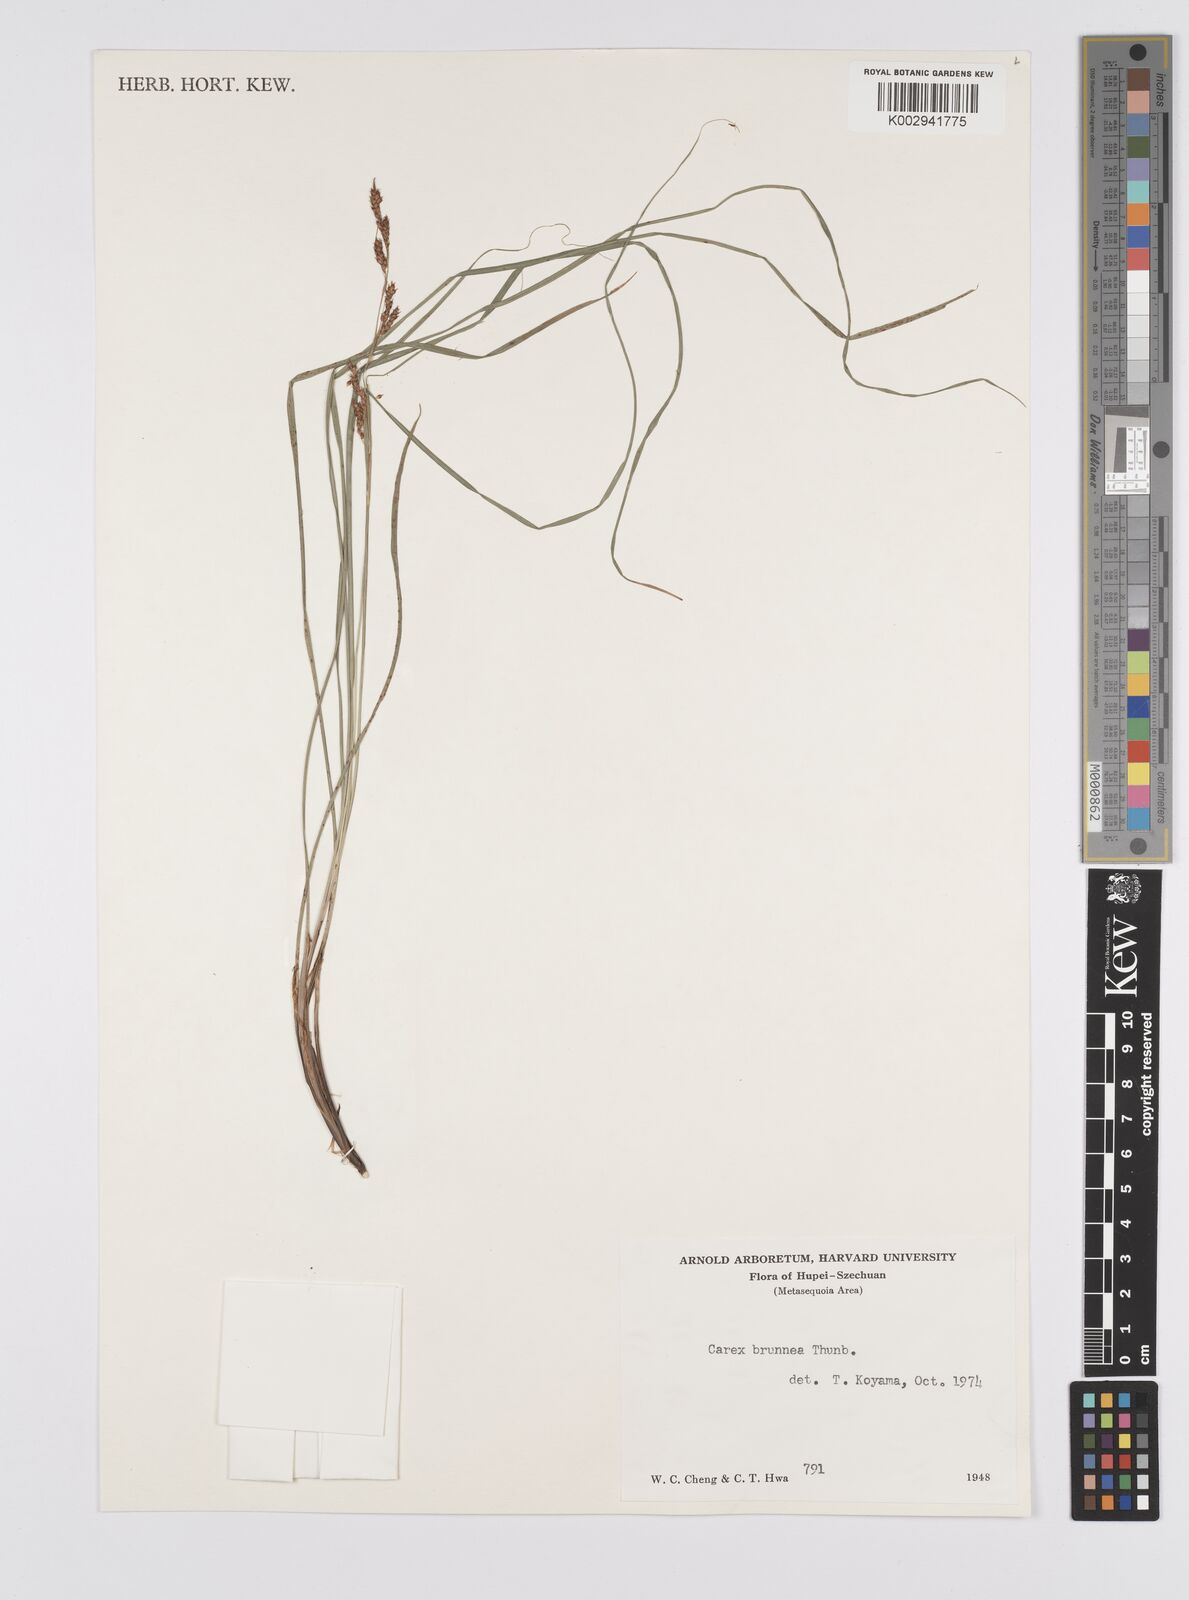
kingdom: Plantae
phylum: Tracheophyta
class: Liliopsida
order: Poales
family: Cyperaceae
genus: Carex
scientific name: Carex brunnea
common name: Greater brown sedge
